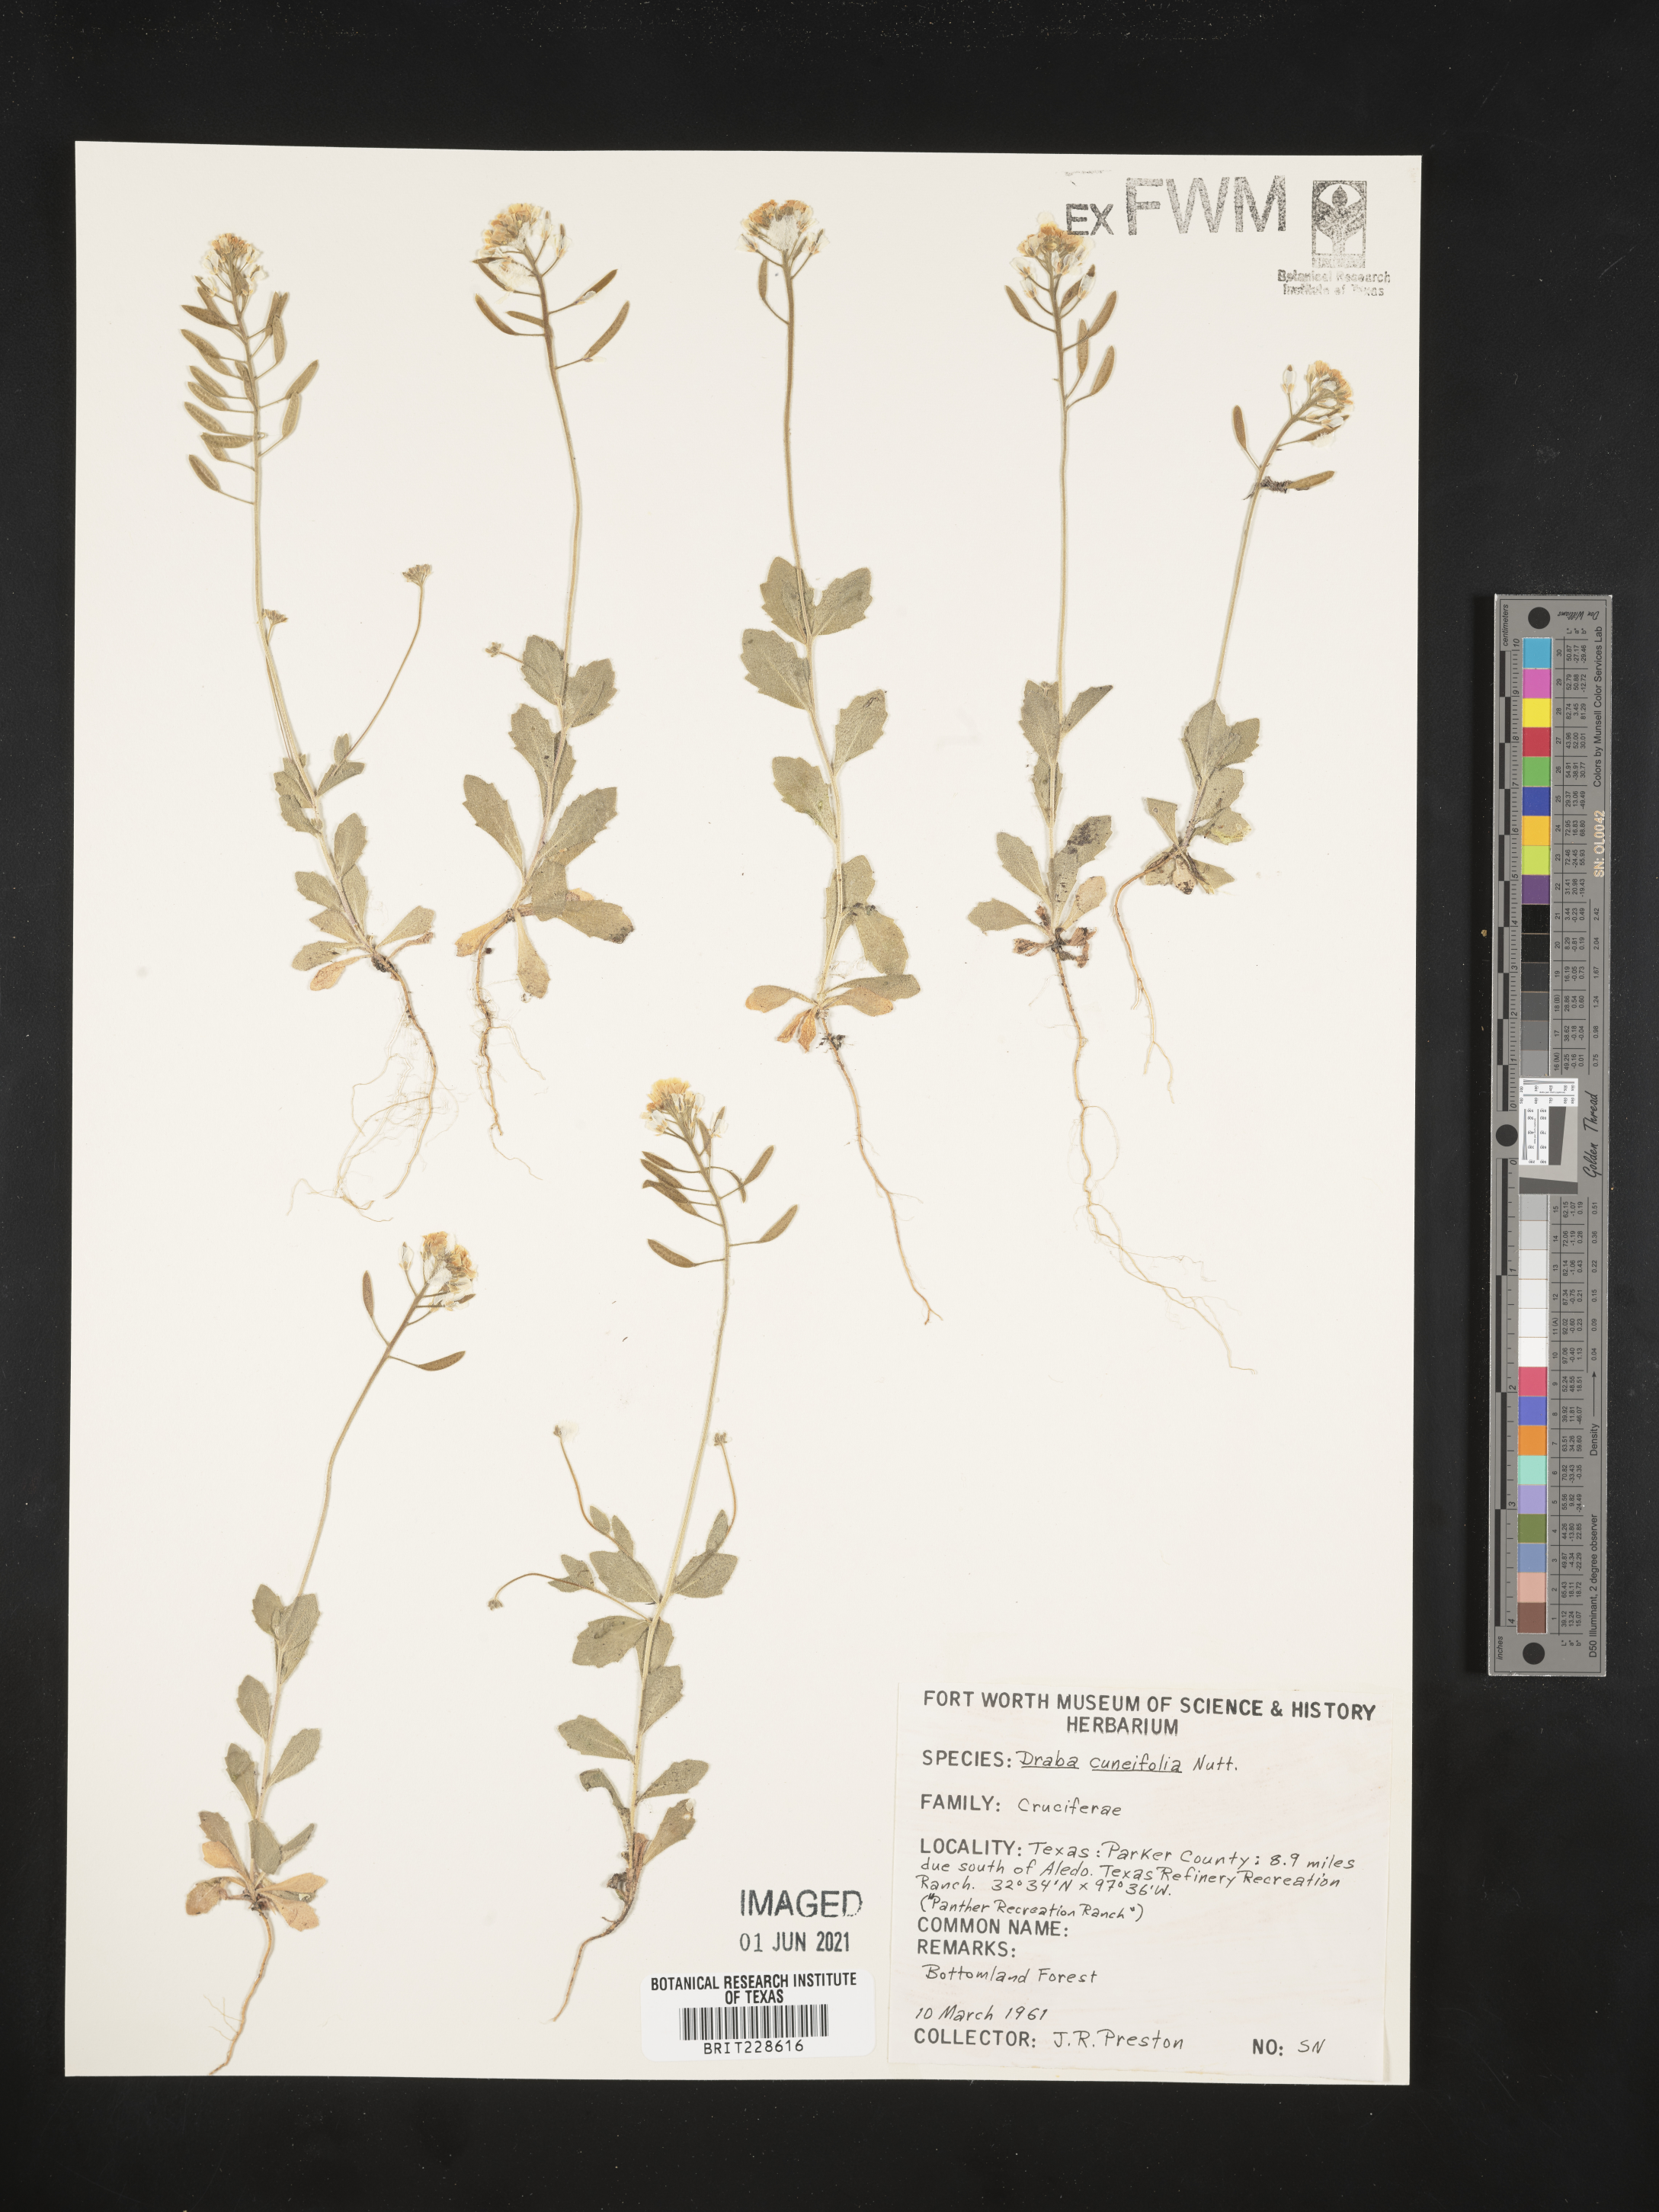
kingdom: Plantae
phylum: Tracheophyta
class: Magnoliopsida
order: Brassicales
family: Brassicaceae
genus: Tomostima
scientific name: Tomostima cuneifolia
